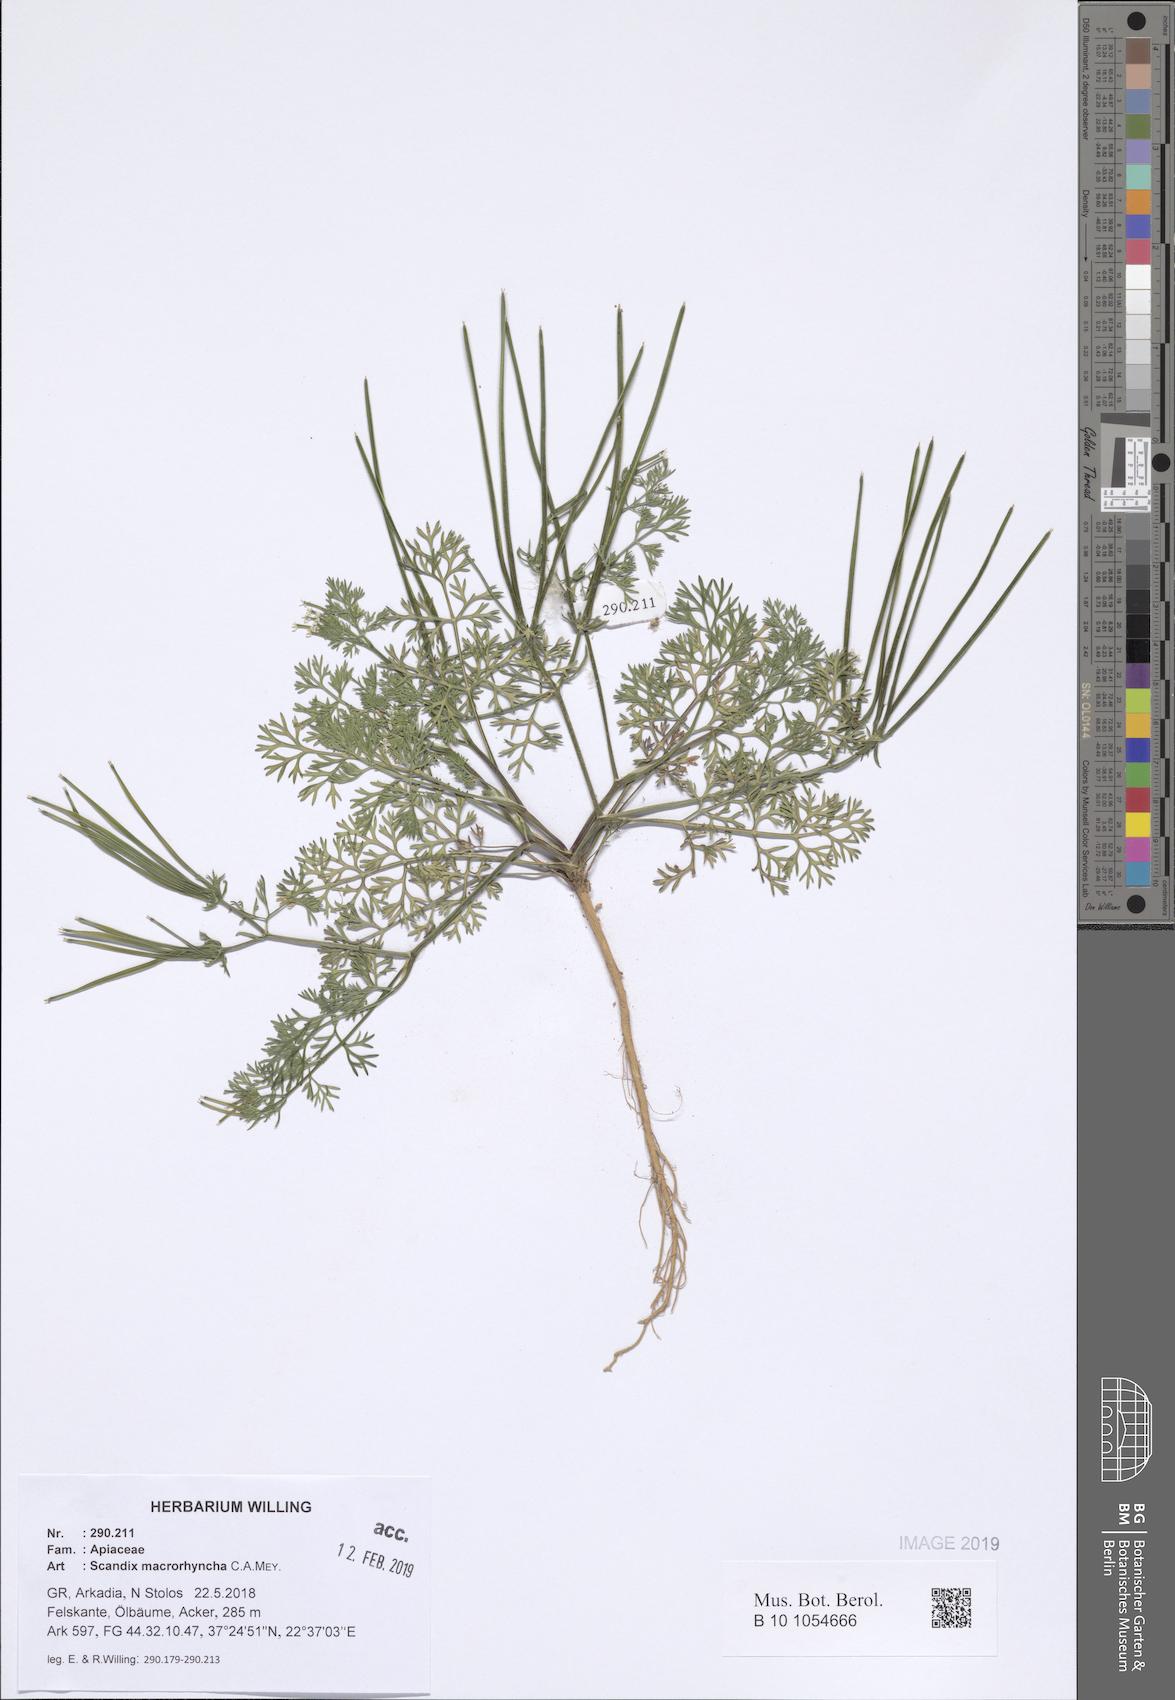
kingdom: Plantae
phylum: Tracheophyta
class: Magnoliopsida
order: Apiales
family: Apiaceae
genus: Scandix
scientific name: Scandix macrorhyncha
